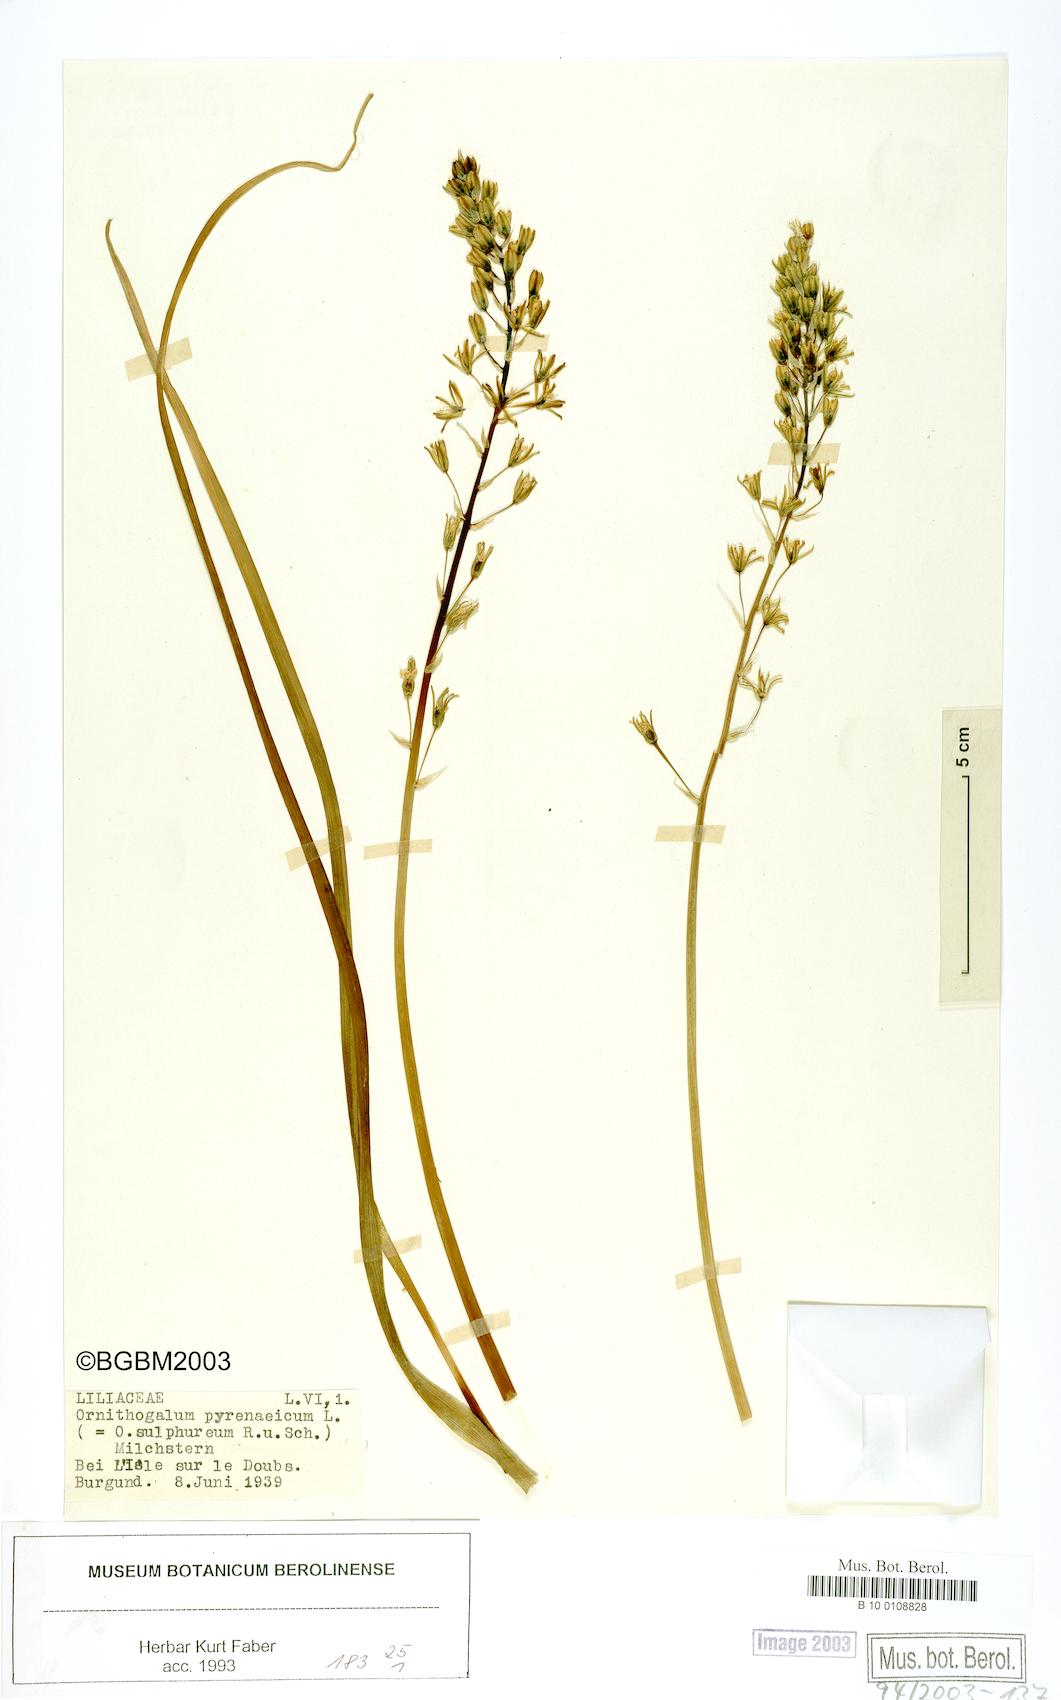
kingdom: Plantae
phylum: Tracheophyta
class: Liliopsida
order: Asparagales
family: Asparagaceae
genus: Ornithogalum
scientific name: Ornithogalum pyrenaicum
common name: Spiked star-of-bethlehem
